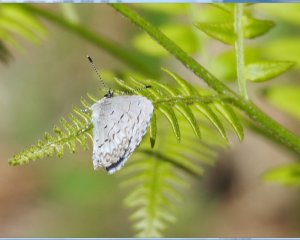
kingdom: Animalia
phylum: Arthropoda
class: Insecta
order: Lepidoptera
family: Lycaenidae
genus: Celastrina
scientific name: Celastrina lucia
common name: Northern Spring Azure
